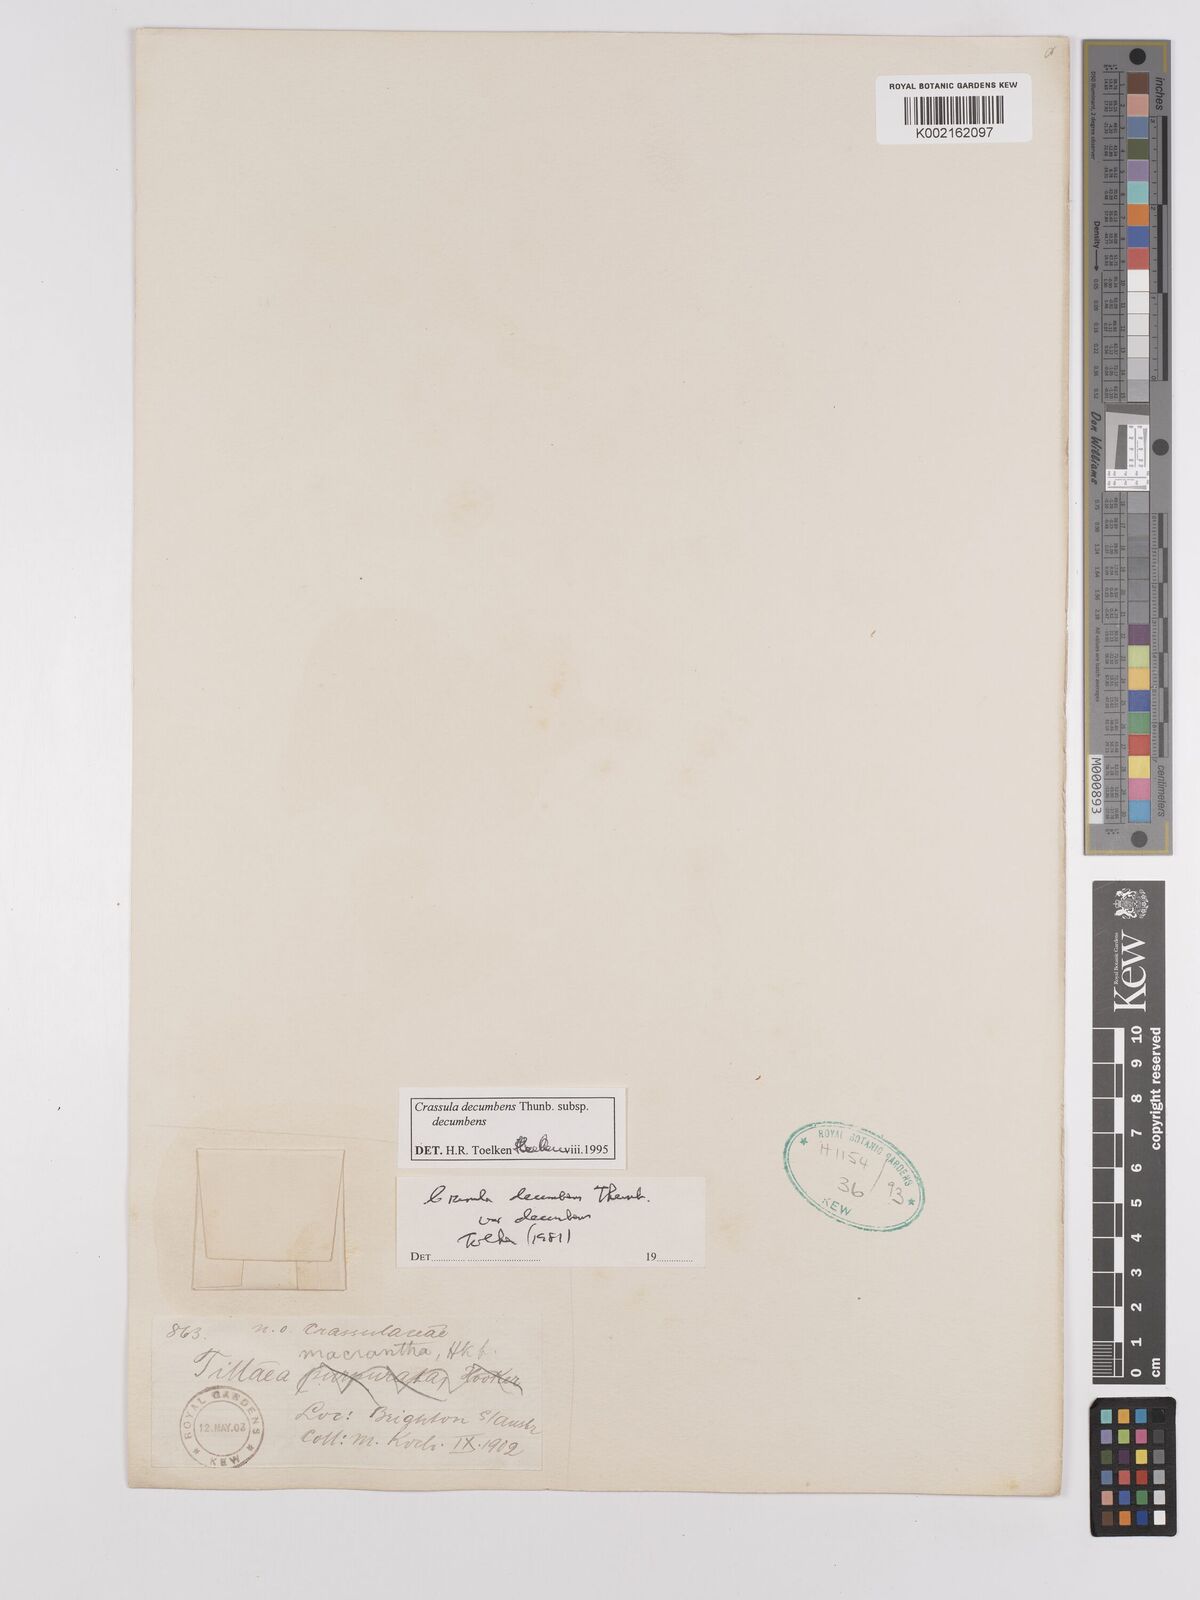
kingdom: Plantae
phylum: Tracheophyta
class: Magnoliopsida
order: Saxifragales
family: Crassulaceae
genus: Crassula
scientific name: Crassula decumbens
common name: Scilly pigmyweed
